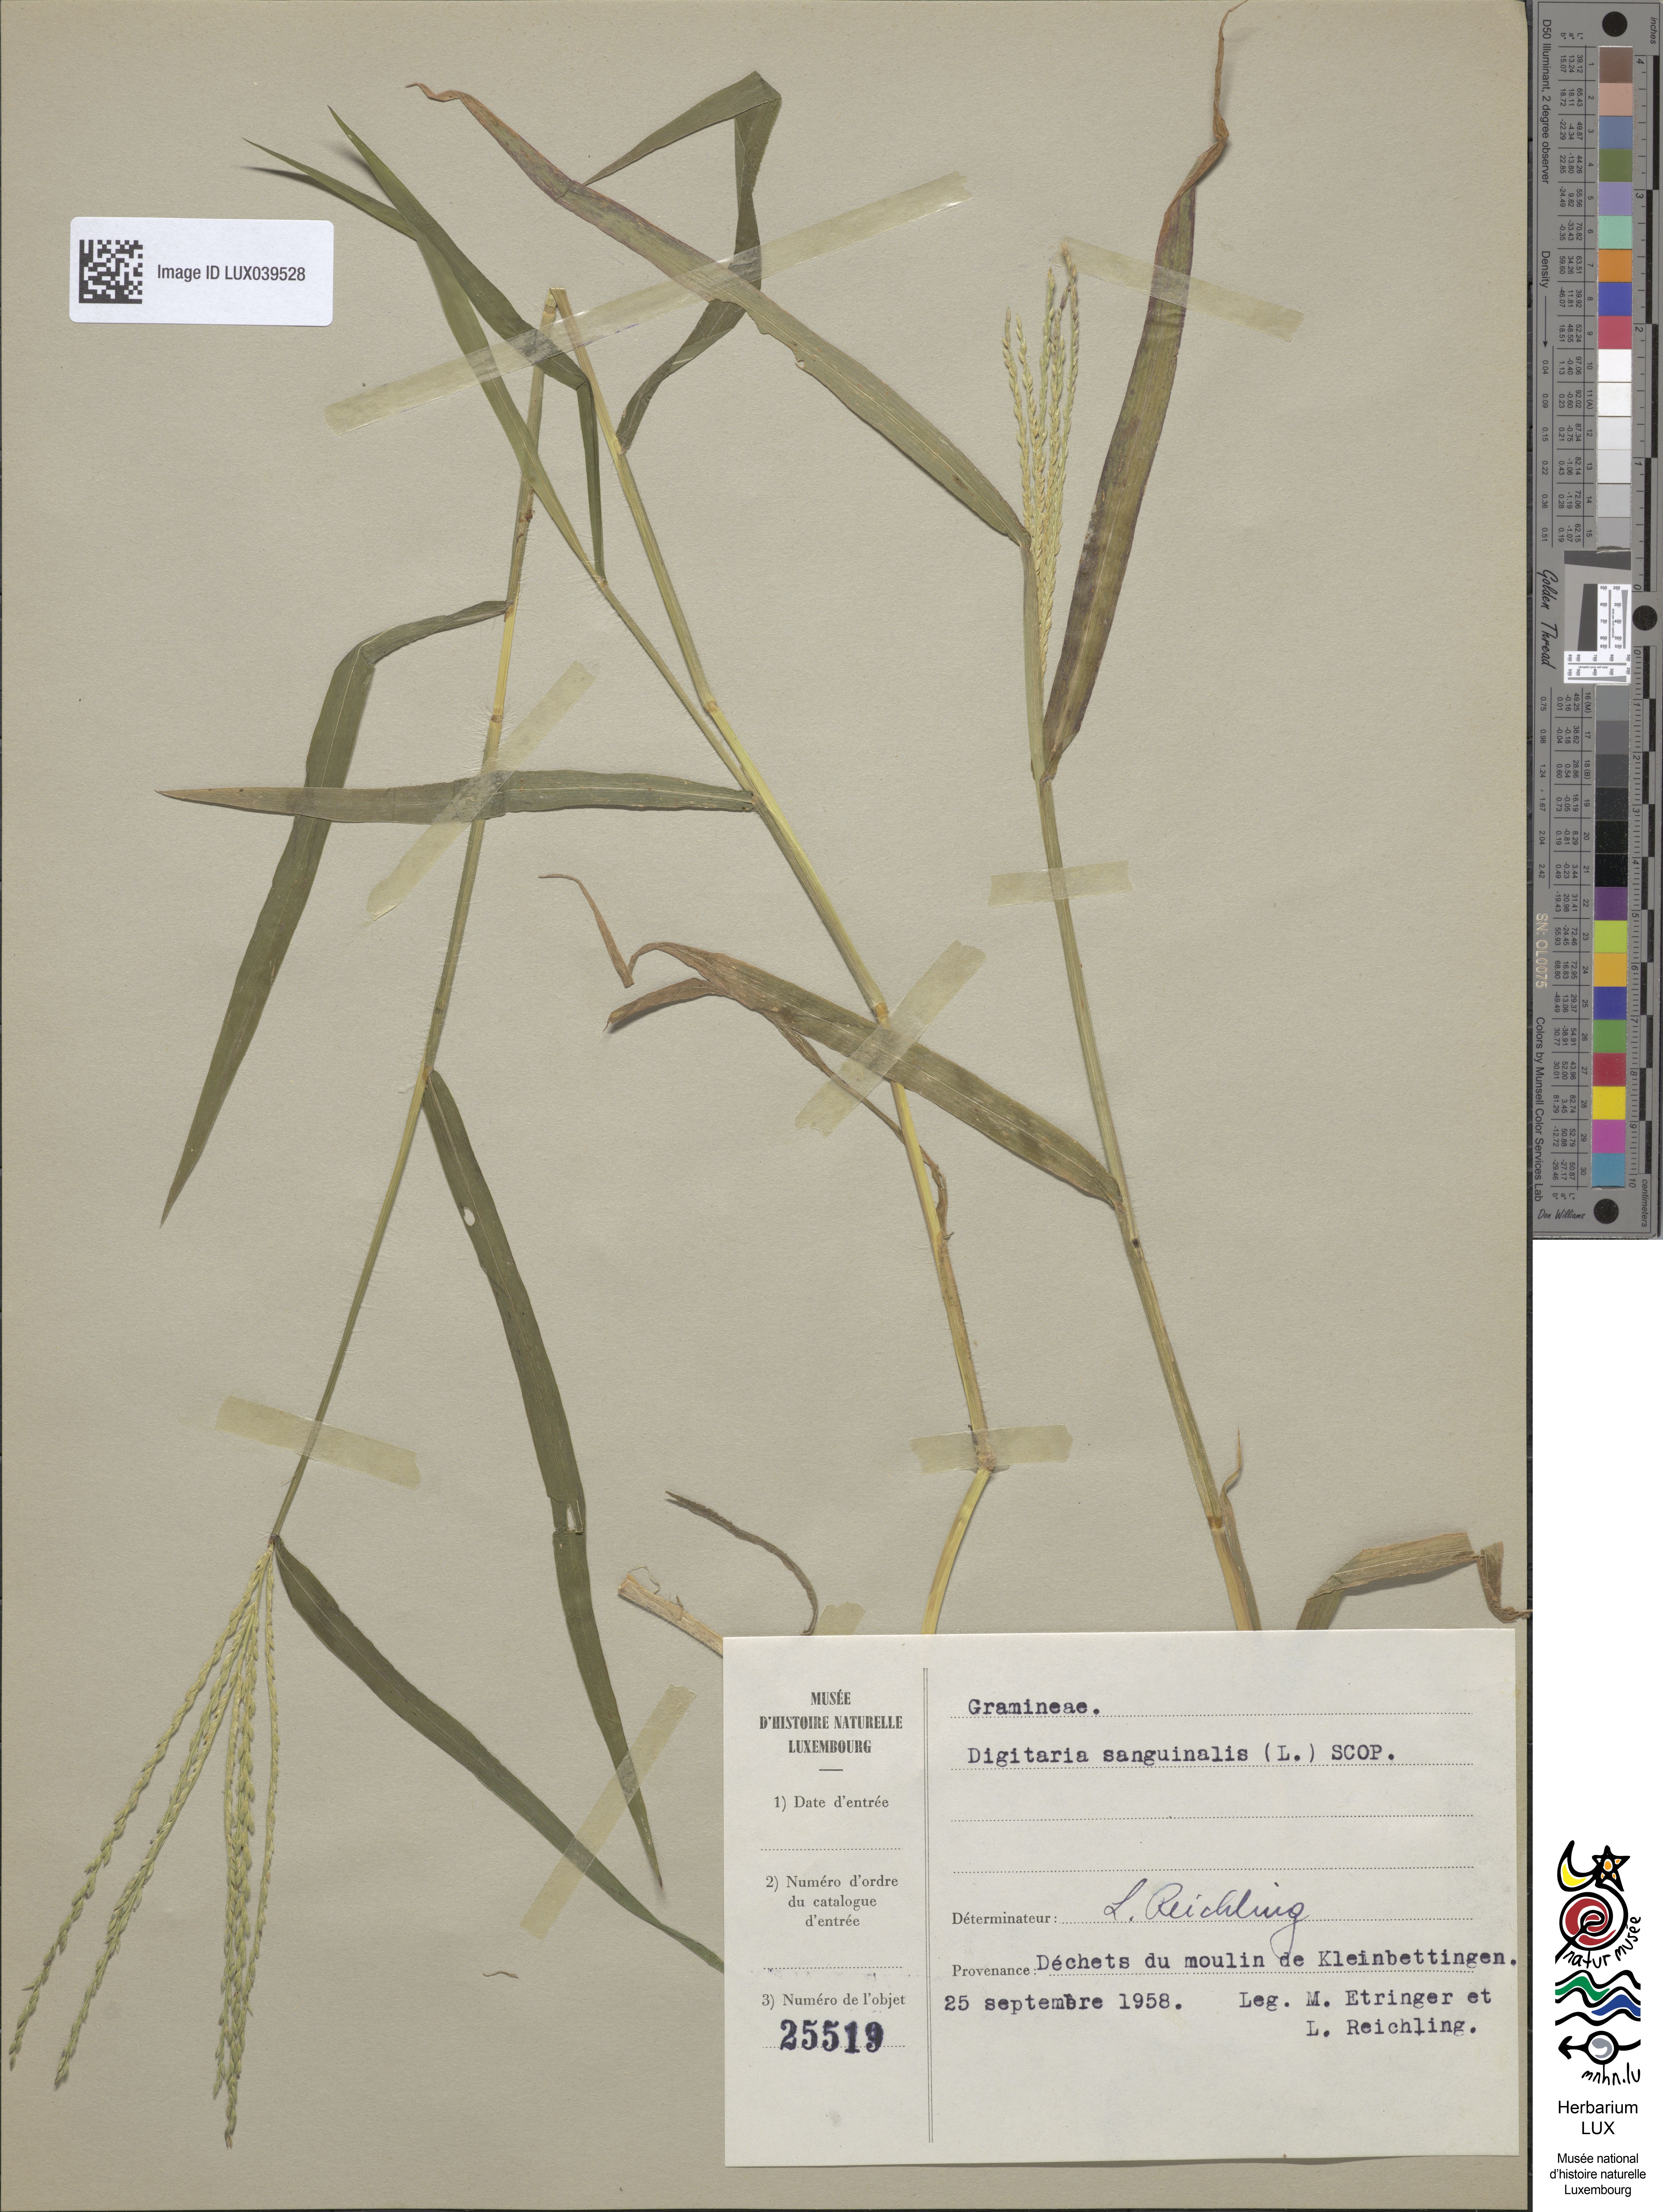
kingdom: Plantae
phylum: Tracheophyta
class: Liliopsida
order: Poales
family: Poaceae
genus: Digitaria
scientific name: Digitaria sanguinalis
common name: Hairy crabgrass
